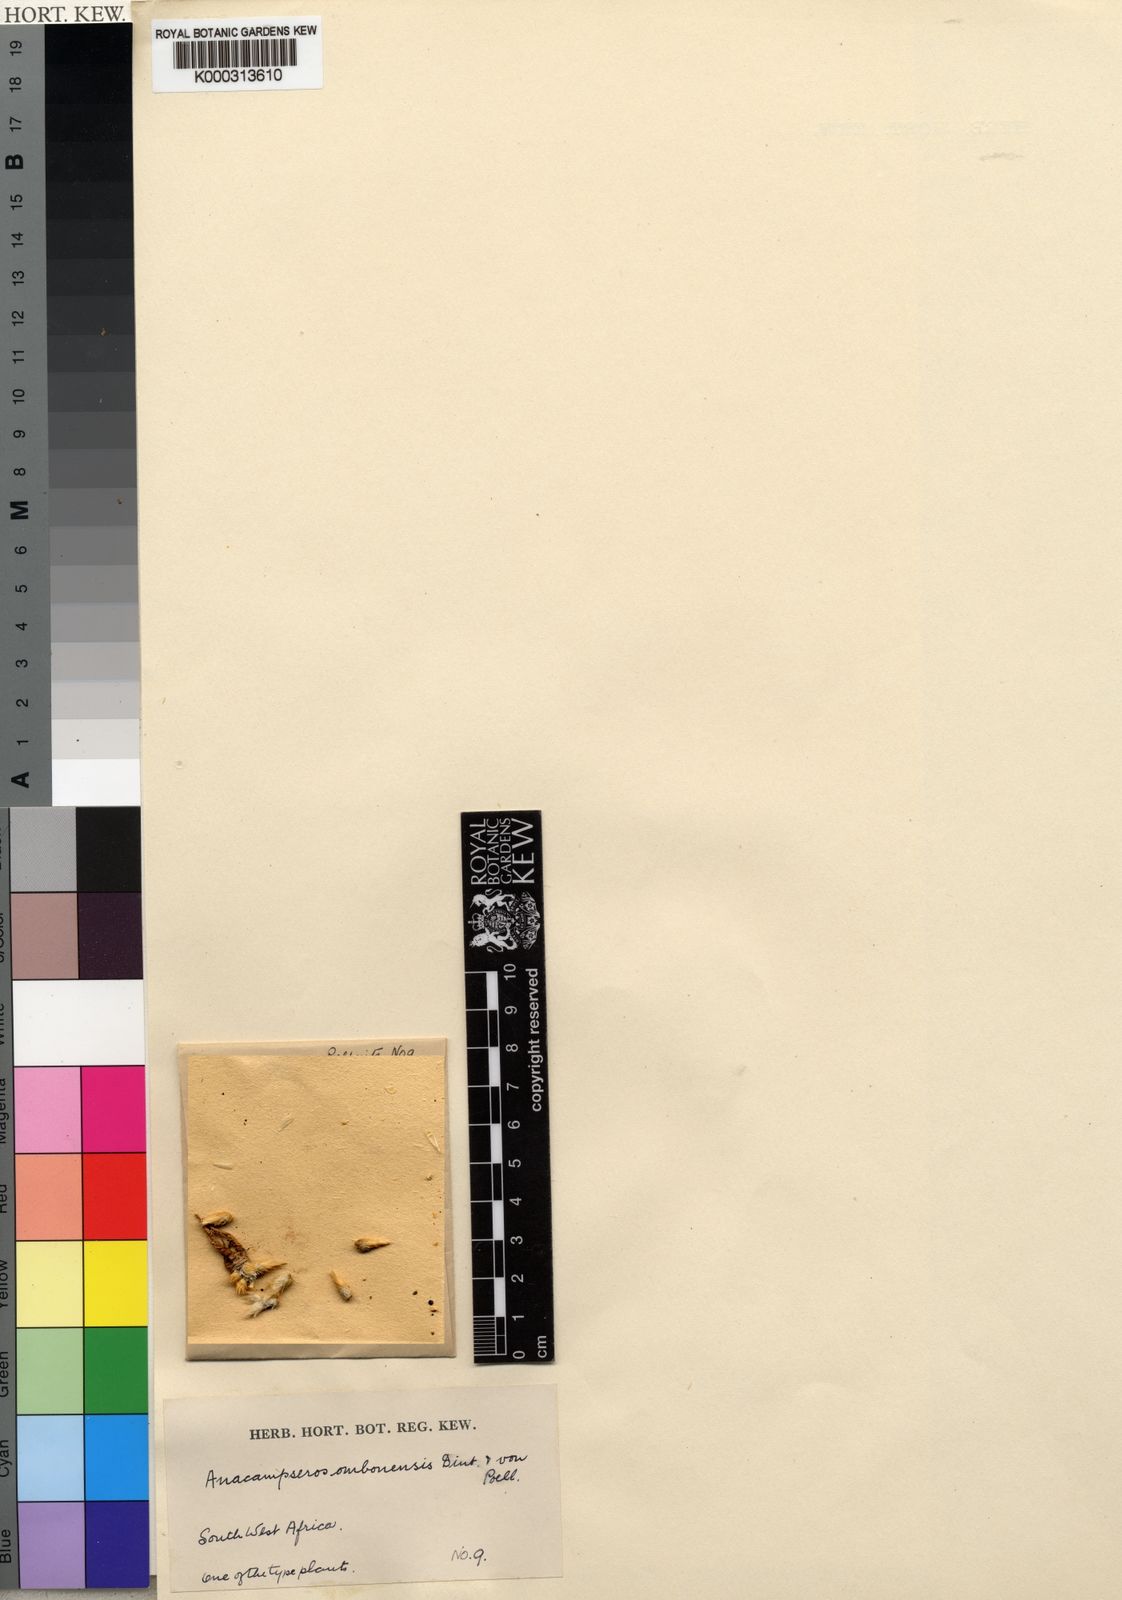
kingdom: Plantae
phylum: Tracheophyta
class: Magnoliopsida
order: Caryophyllales
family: Anacampserotaceae
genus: Avonia
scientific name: Avonia dinteri
